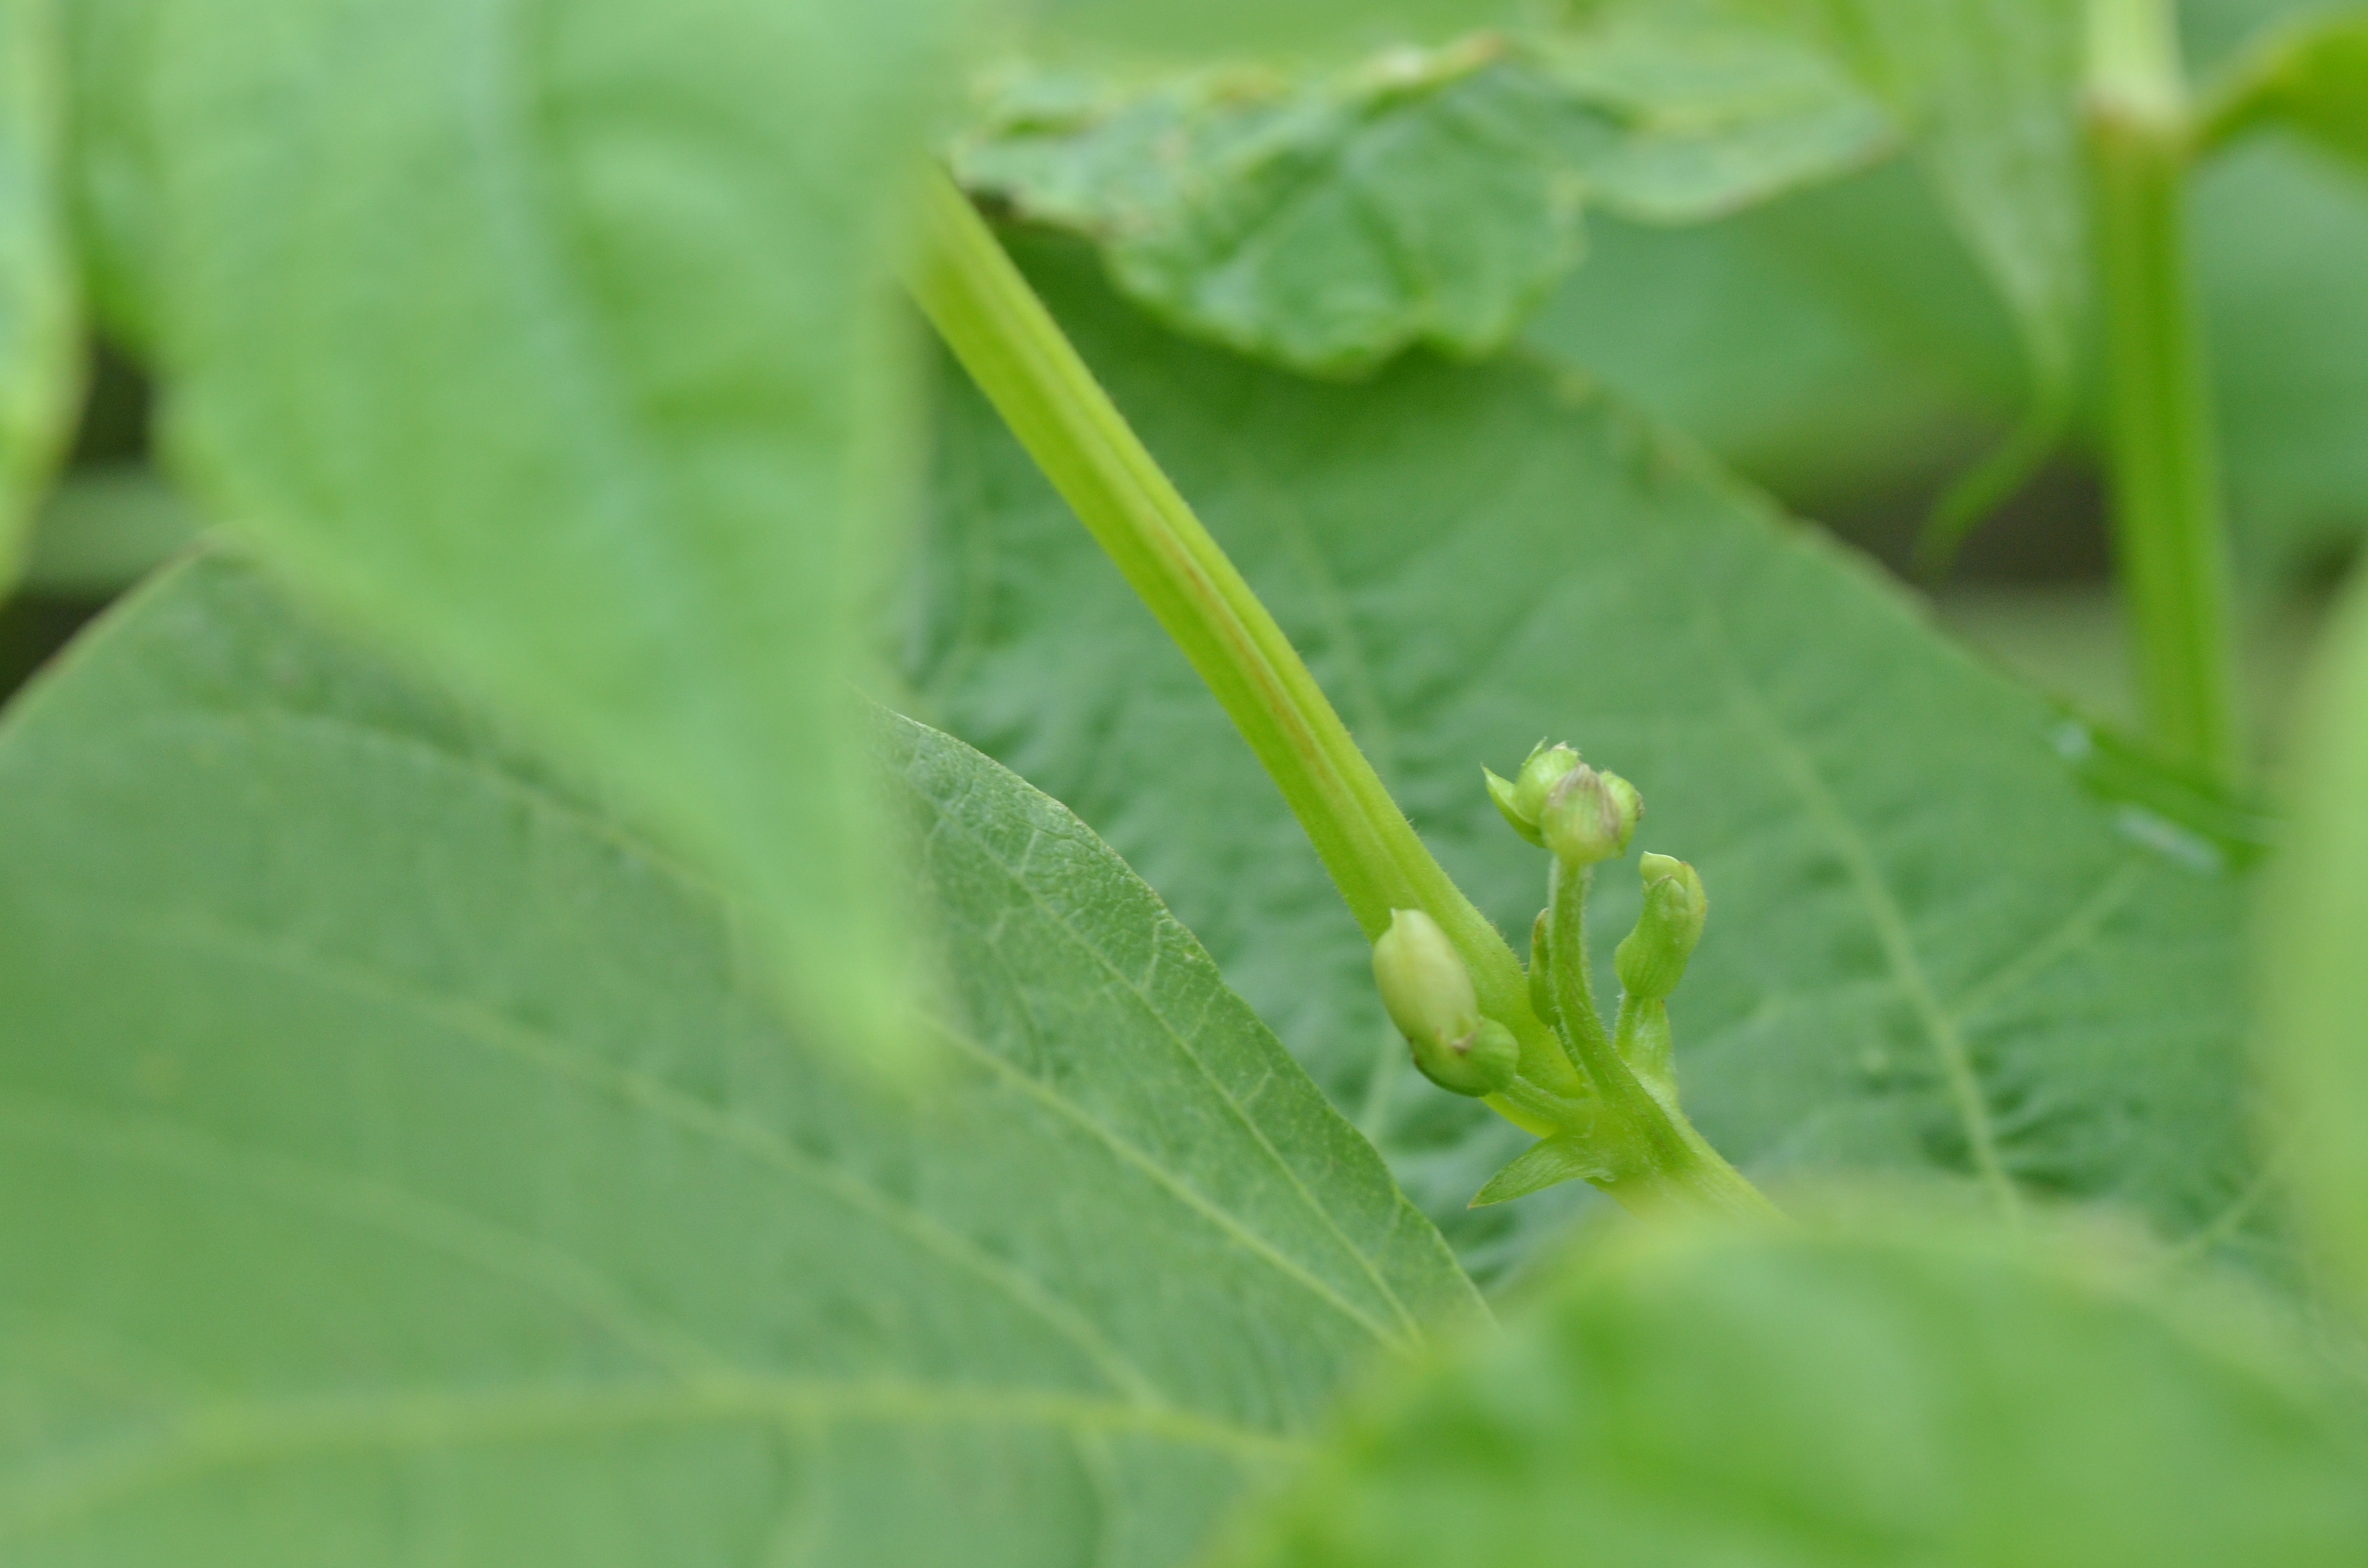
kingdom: Plantae
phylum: Tracheophyta
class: Magnoliopsida
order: Fabales
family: Fabaceae
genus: Phaseolus
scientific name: Phaseolus vulgaris
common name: Bean
